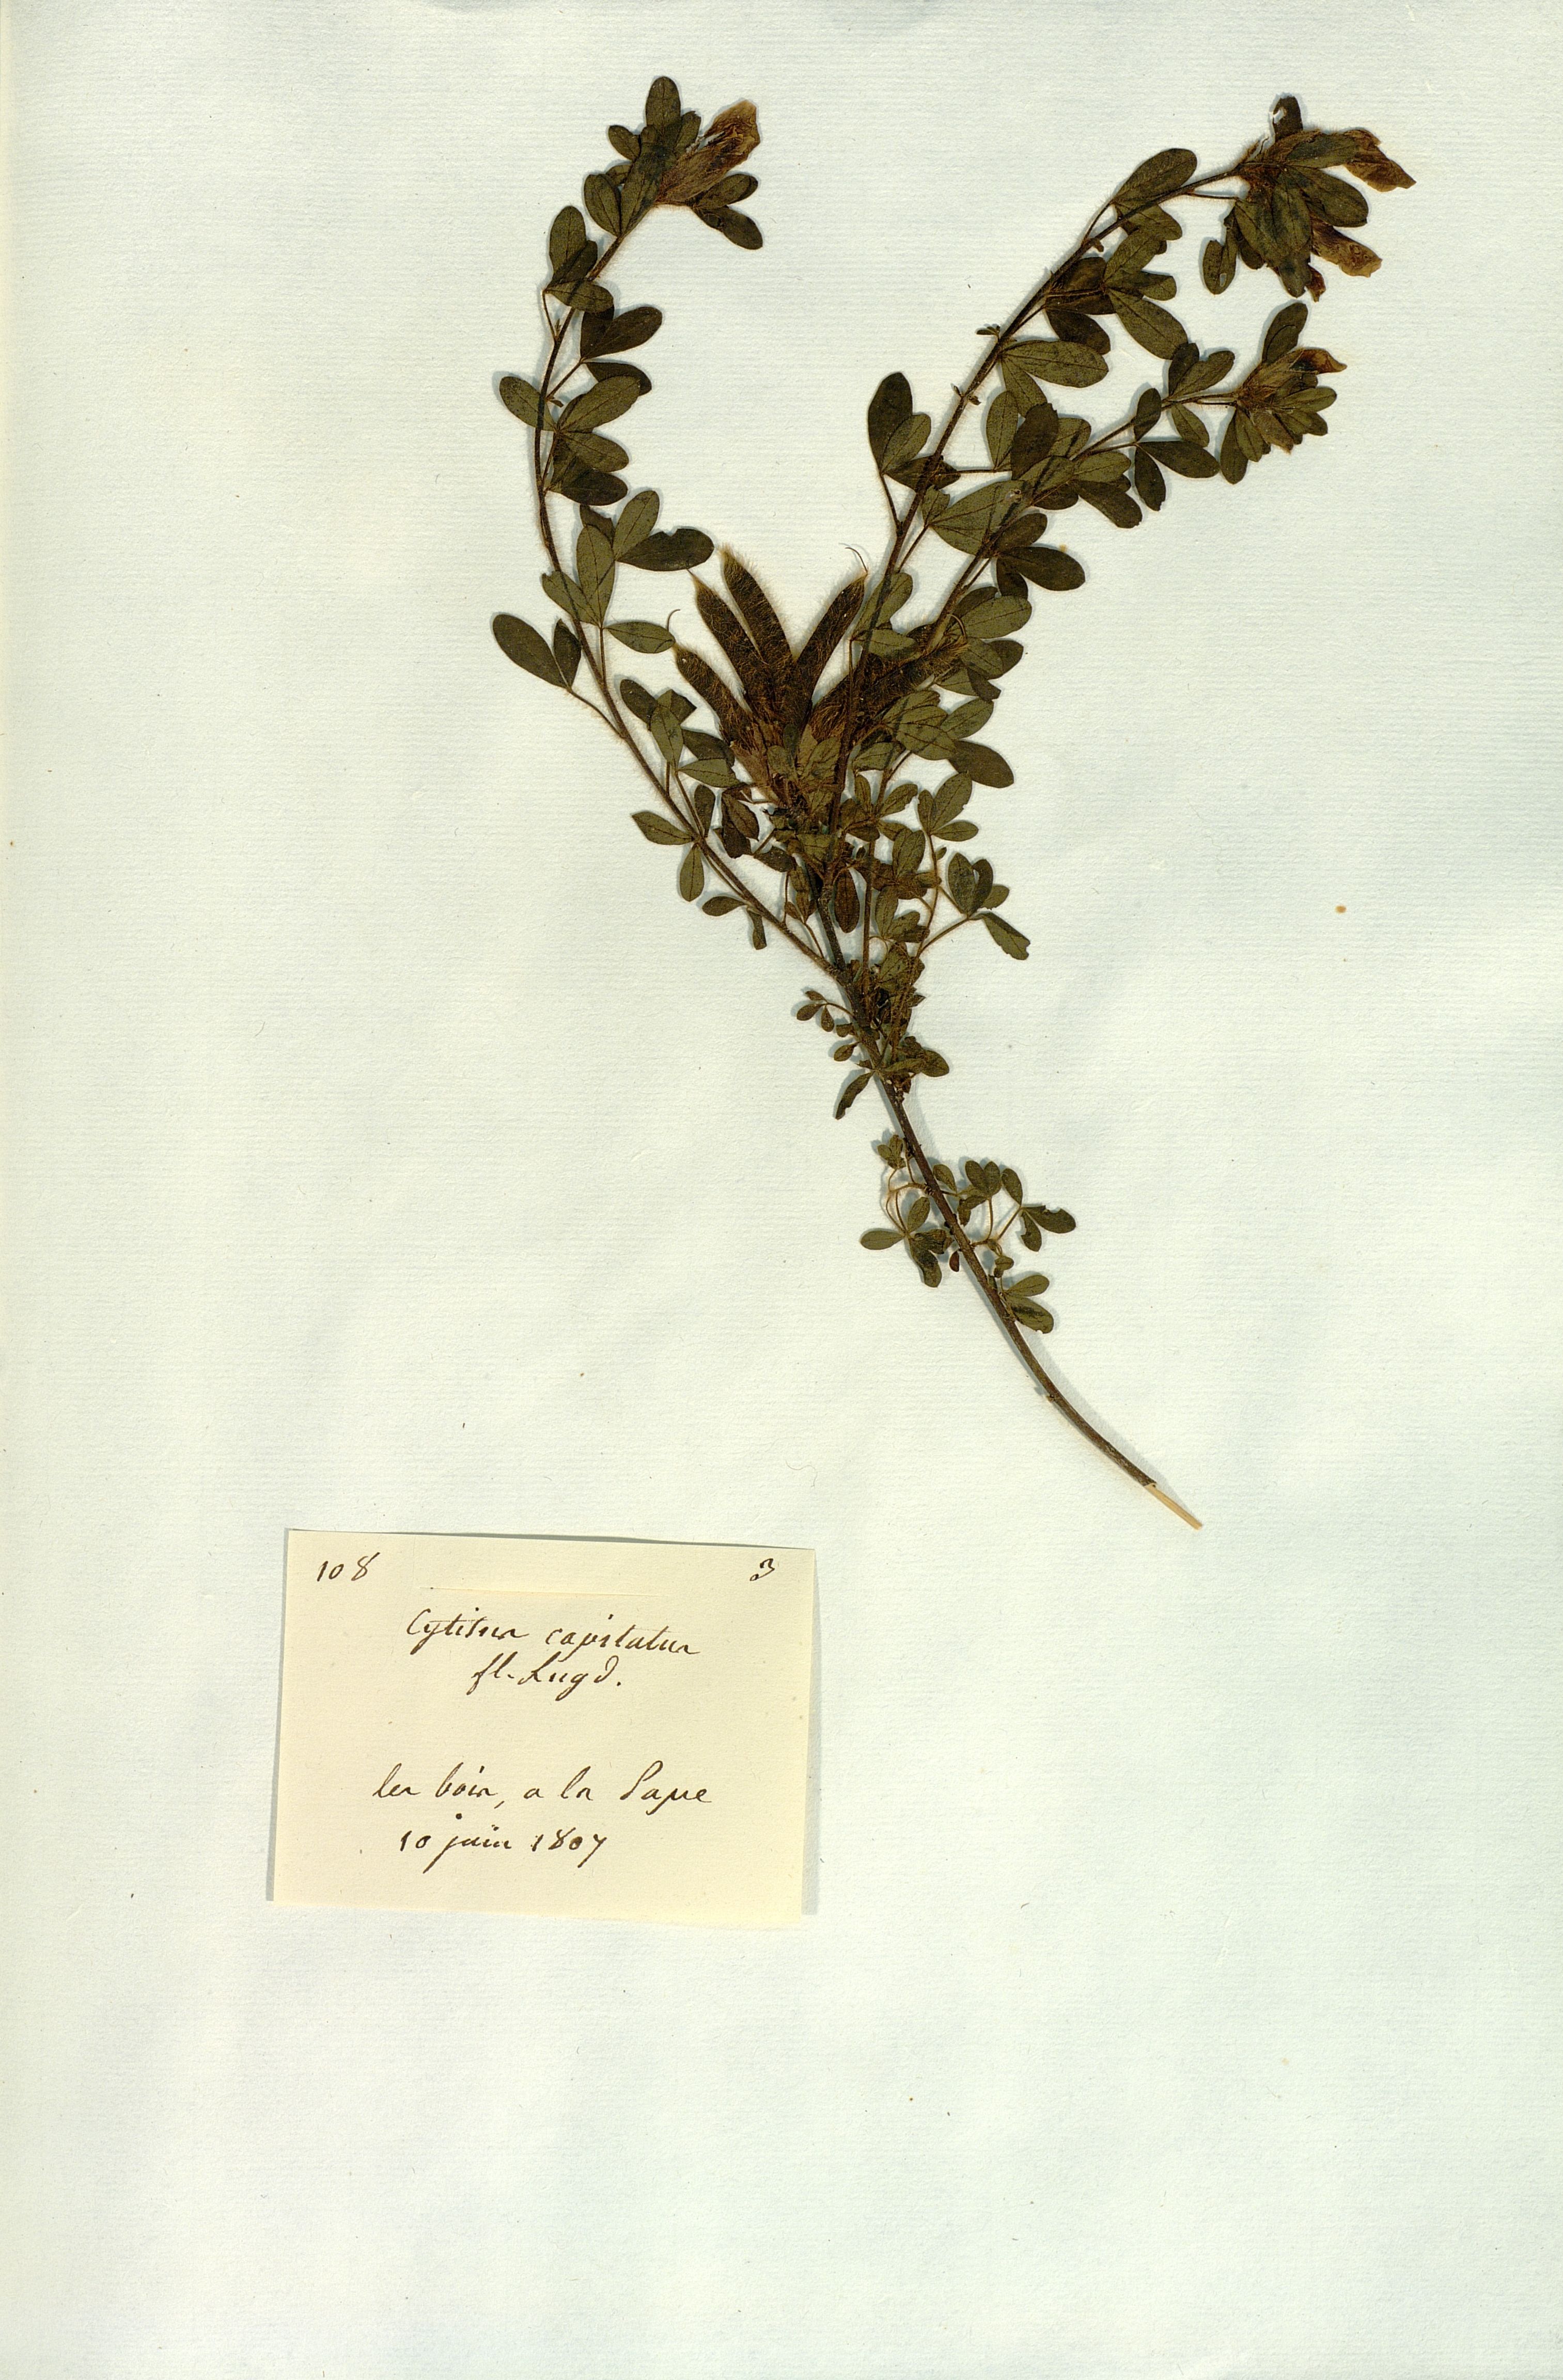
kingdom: Plantae
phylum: Tracheophyta
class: Magnoliopsida
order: Fabales
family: Fabaceae
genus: Chamaecytisus
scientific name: Chamaecytisus hirsutus
